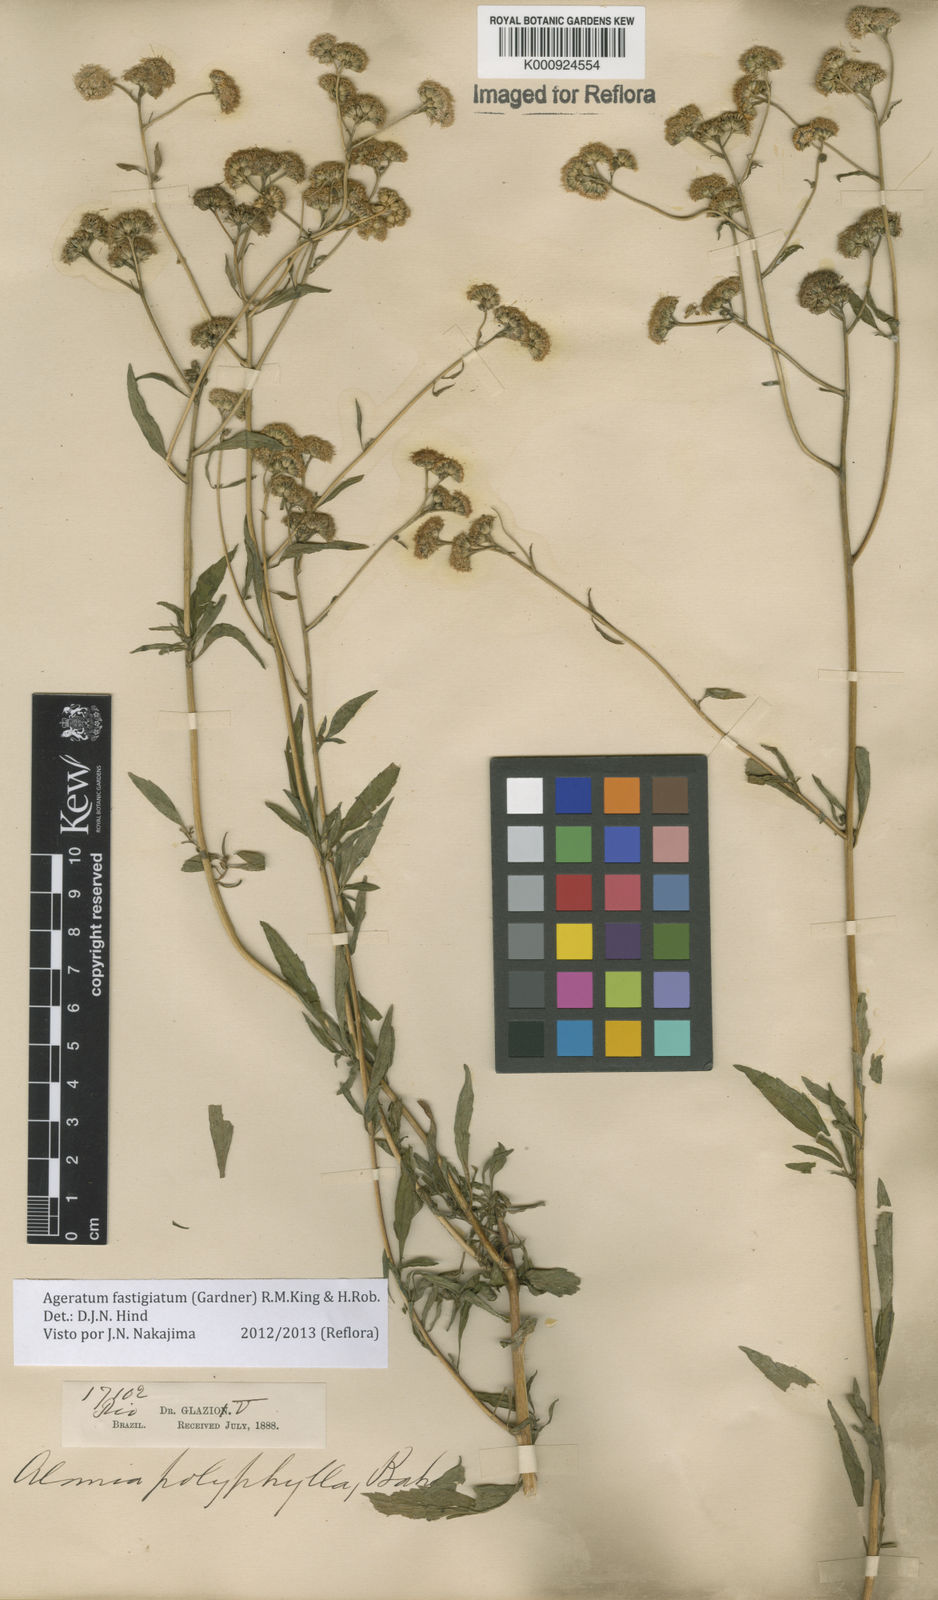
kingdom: Plantae
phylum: Tracheophyta
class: Magnoliopsida
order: Asterales
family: Asteraceae
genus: Ageratum
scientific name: Ageratum fastigiatum
